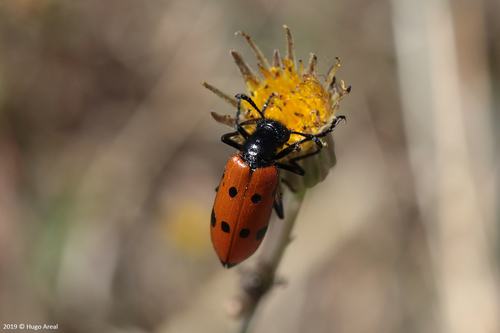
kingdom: Animalia
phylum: Arthropoda
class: Insecta
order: Coleoptera
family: Meloidae
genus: Mylabris
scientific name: Mylabris quadripunctata
